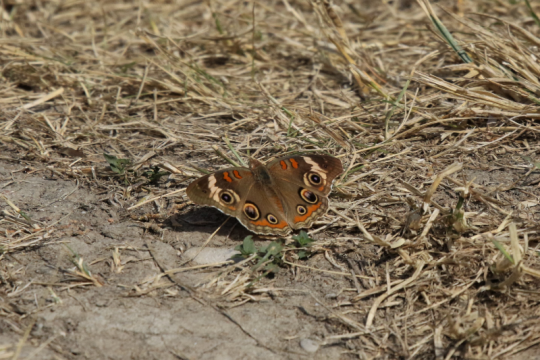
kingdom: Animalia
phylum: Arthropoda
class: Insecta
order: Lepidoptera
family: Nymphalidae
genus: Junonia
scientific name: Junonia coenia
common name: Common Buckeye
